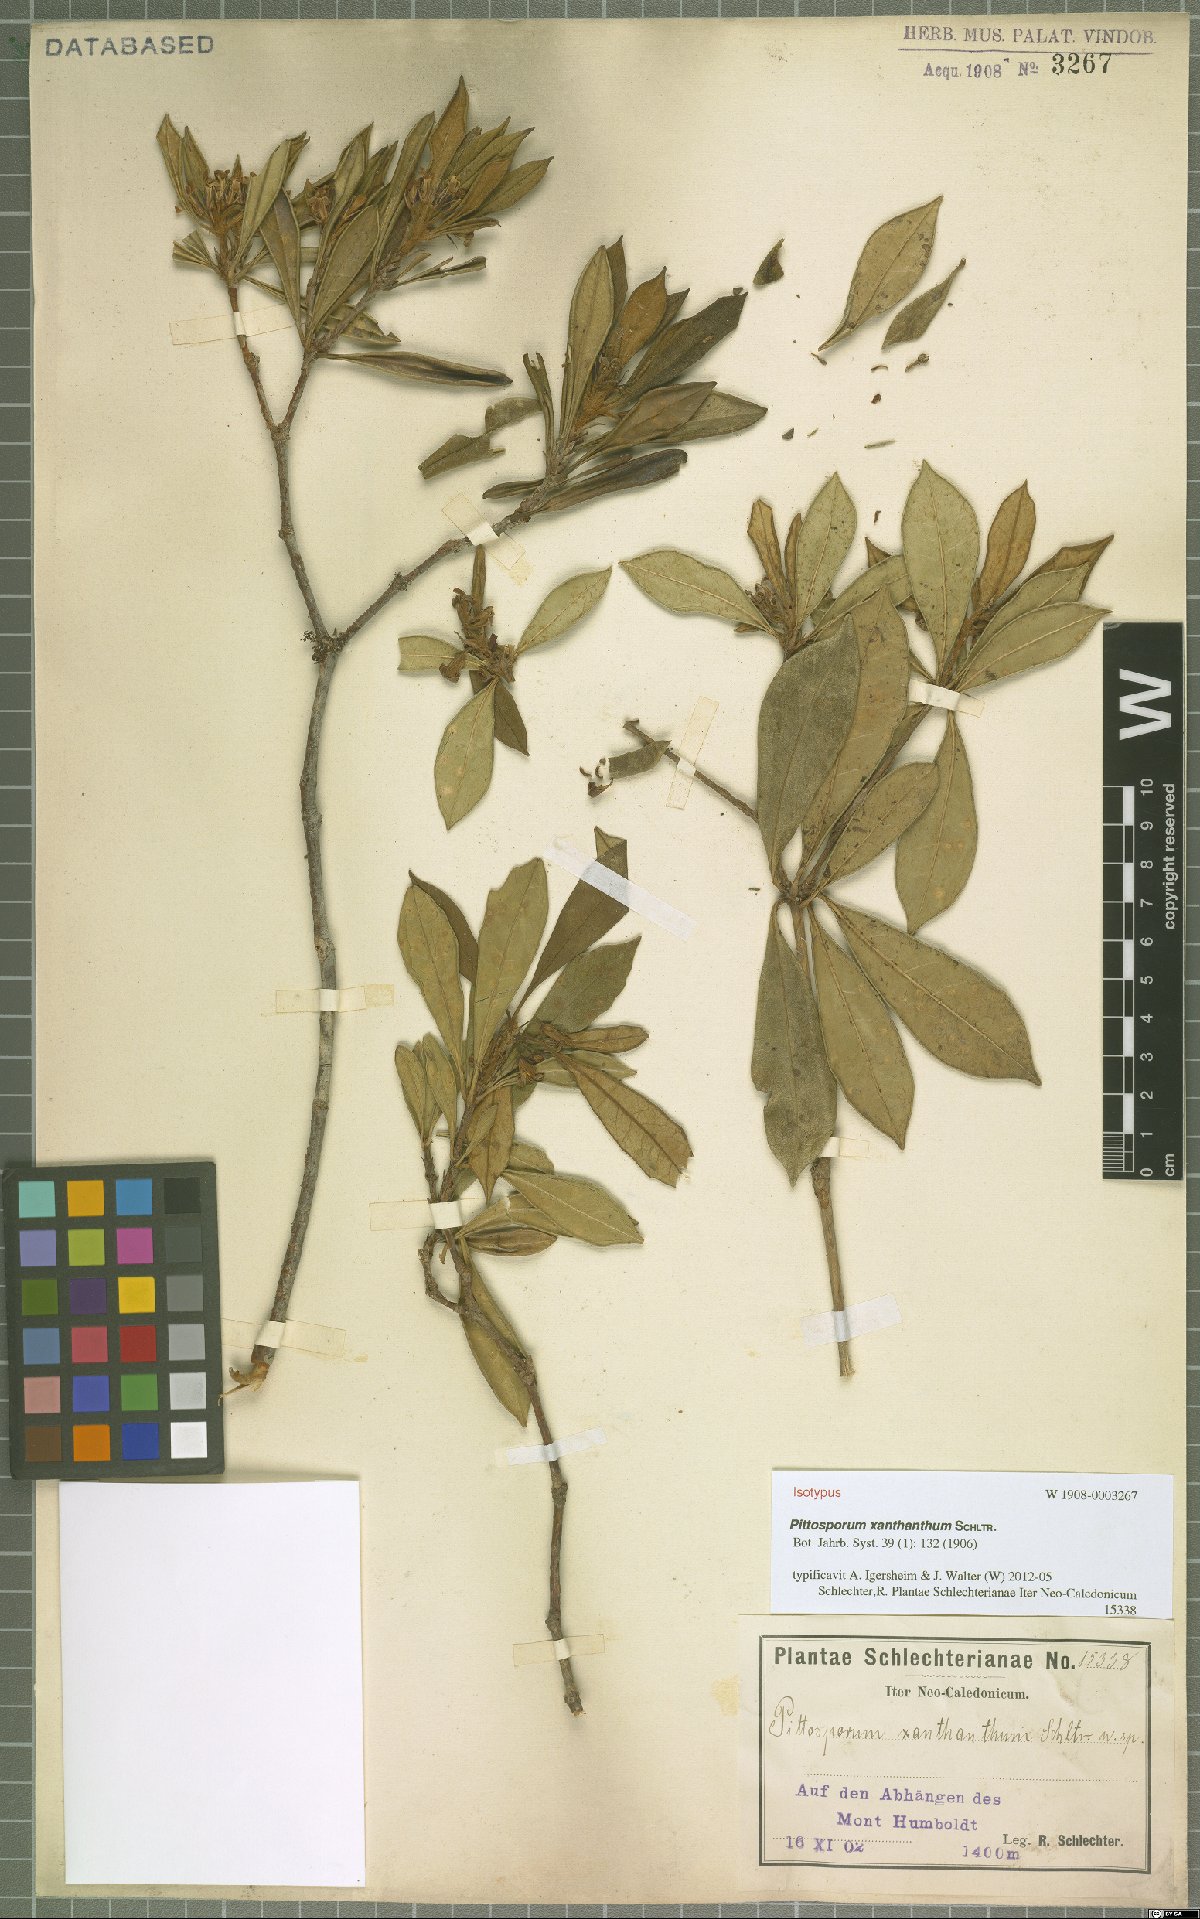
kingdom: Plantae
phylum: Tracheophyta
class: Magnoliopsida
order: Apiales
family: Pittosporaceae
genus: Pittosporum
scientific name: Pittosporum xanthanthum
